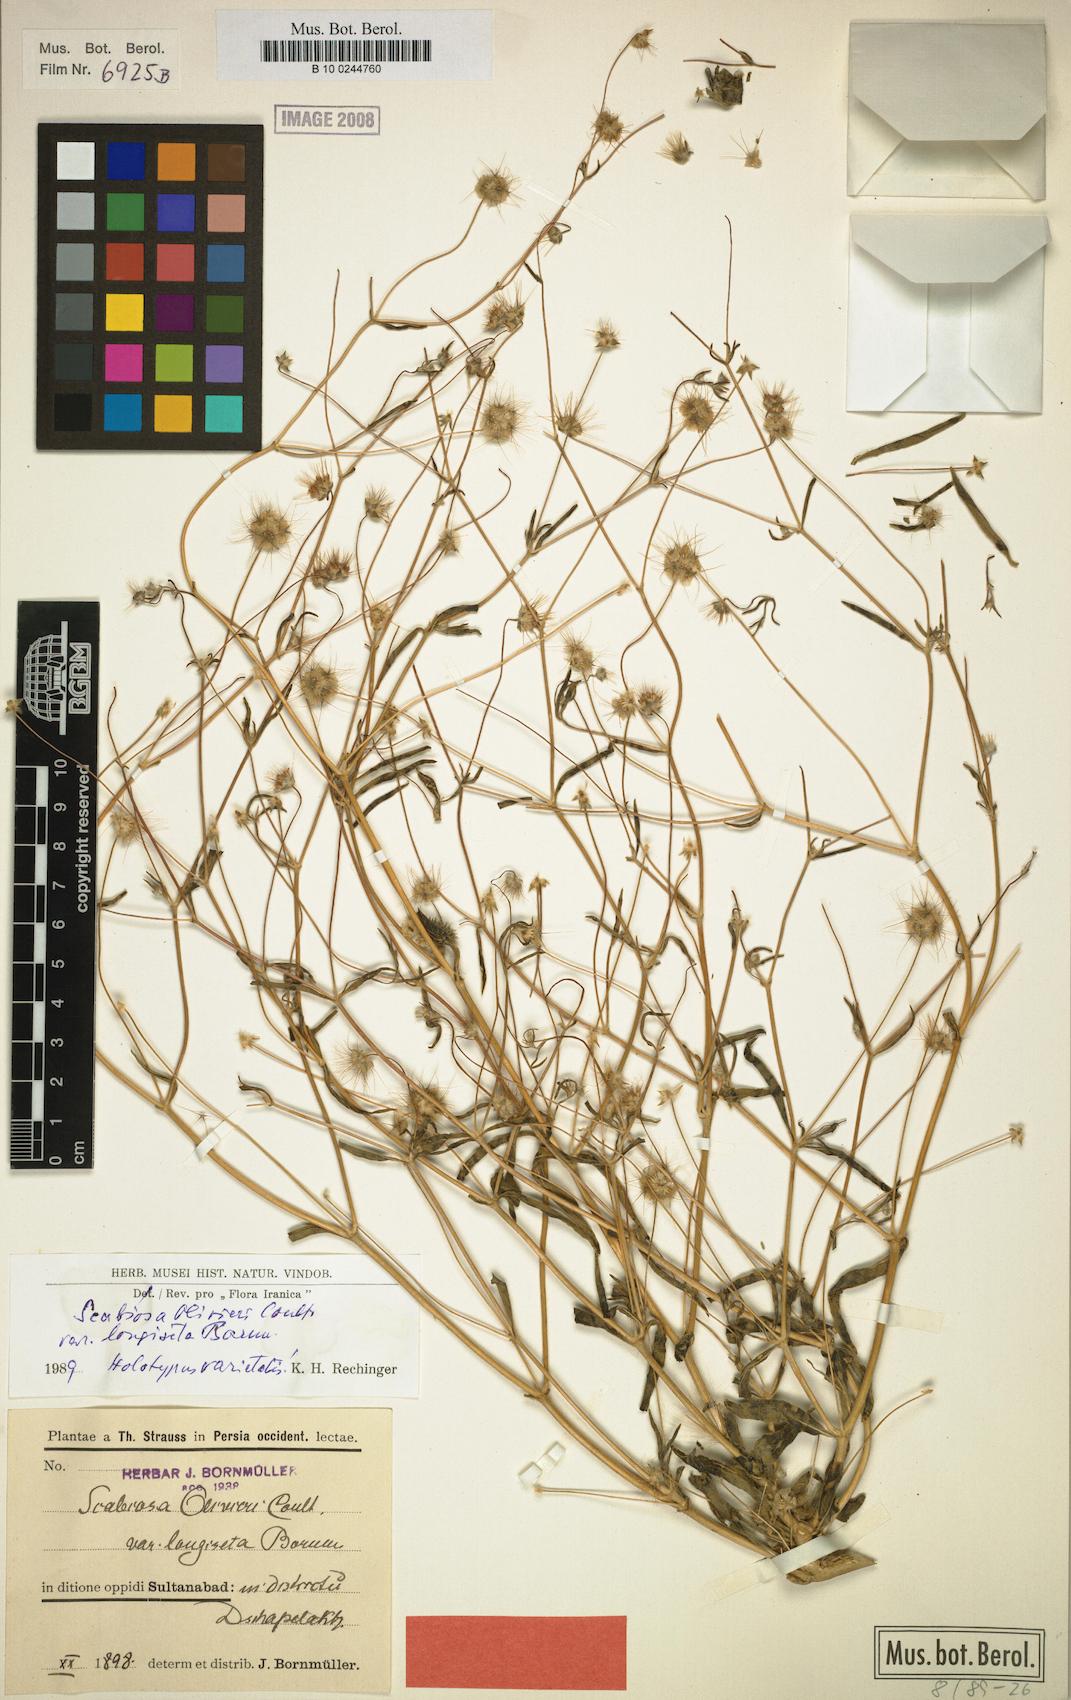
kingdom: Plantae
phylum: Tracheophyta
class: Magnoliopsida
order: Dipsacales
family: Caprifoliaceae
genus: Lomelosia
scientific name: Lomelosia olivieri
